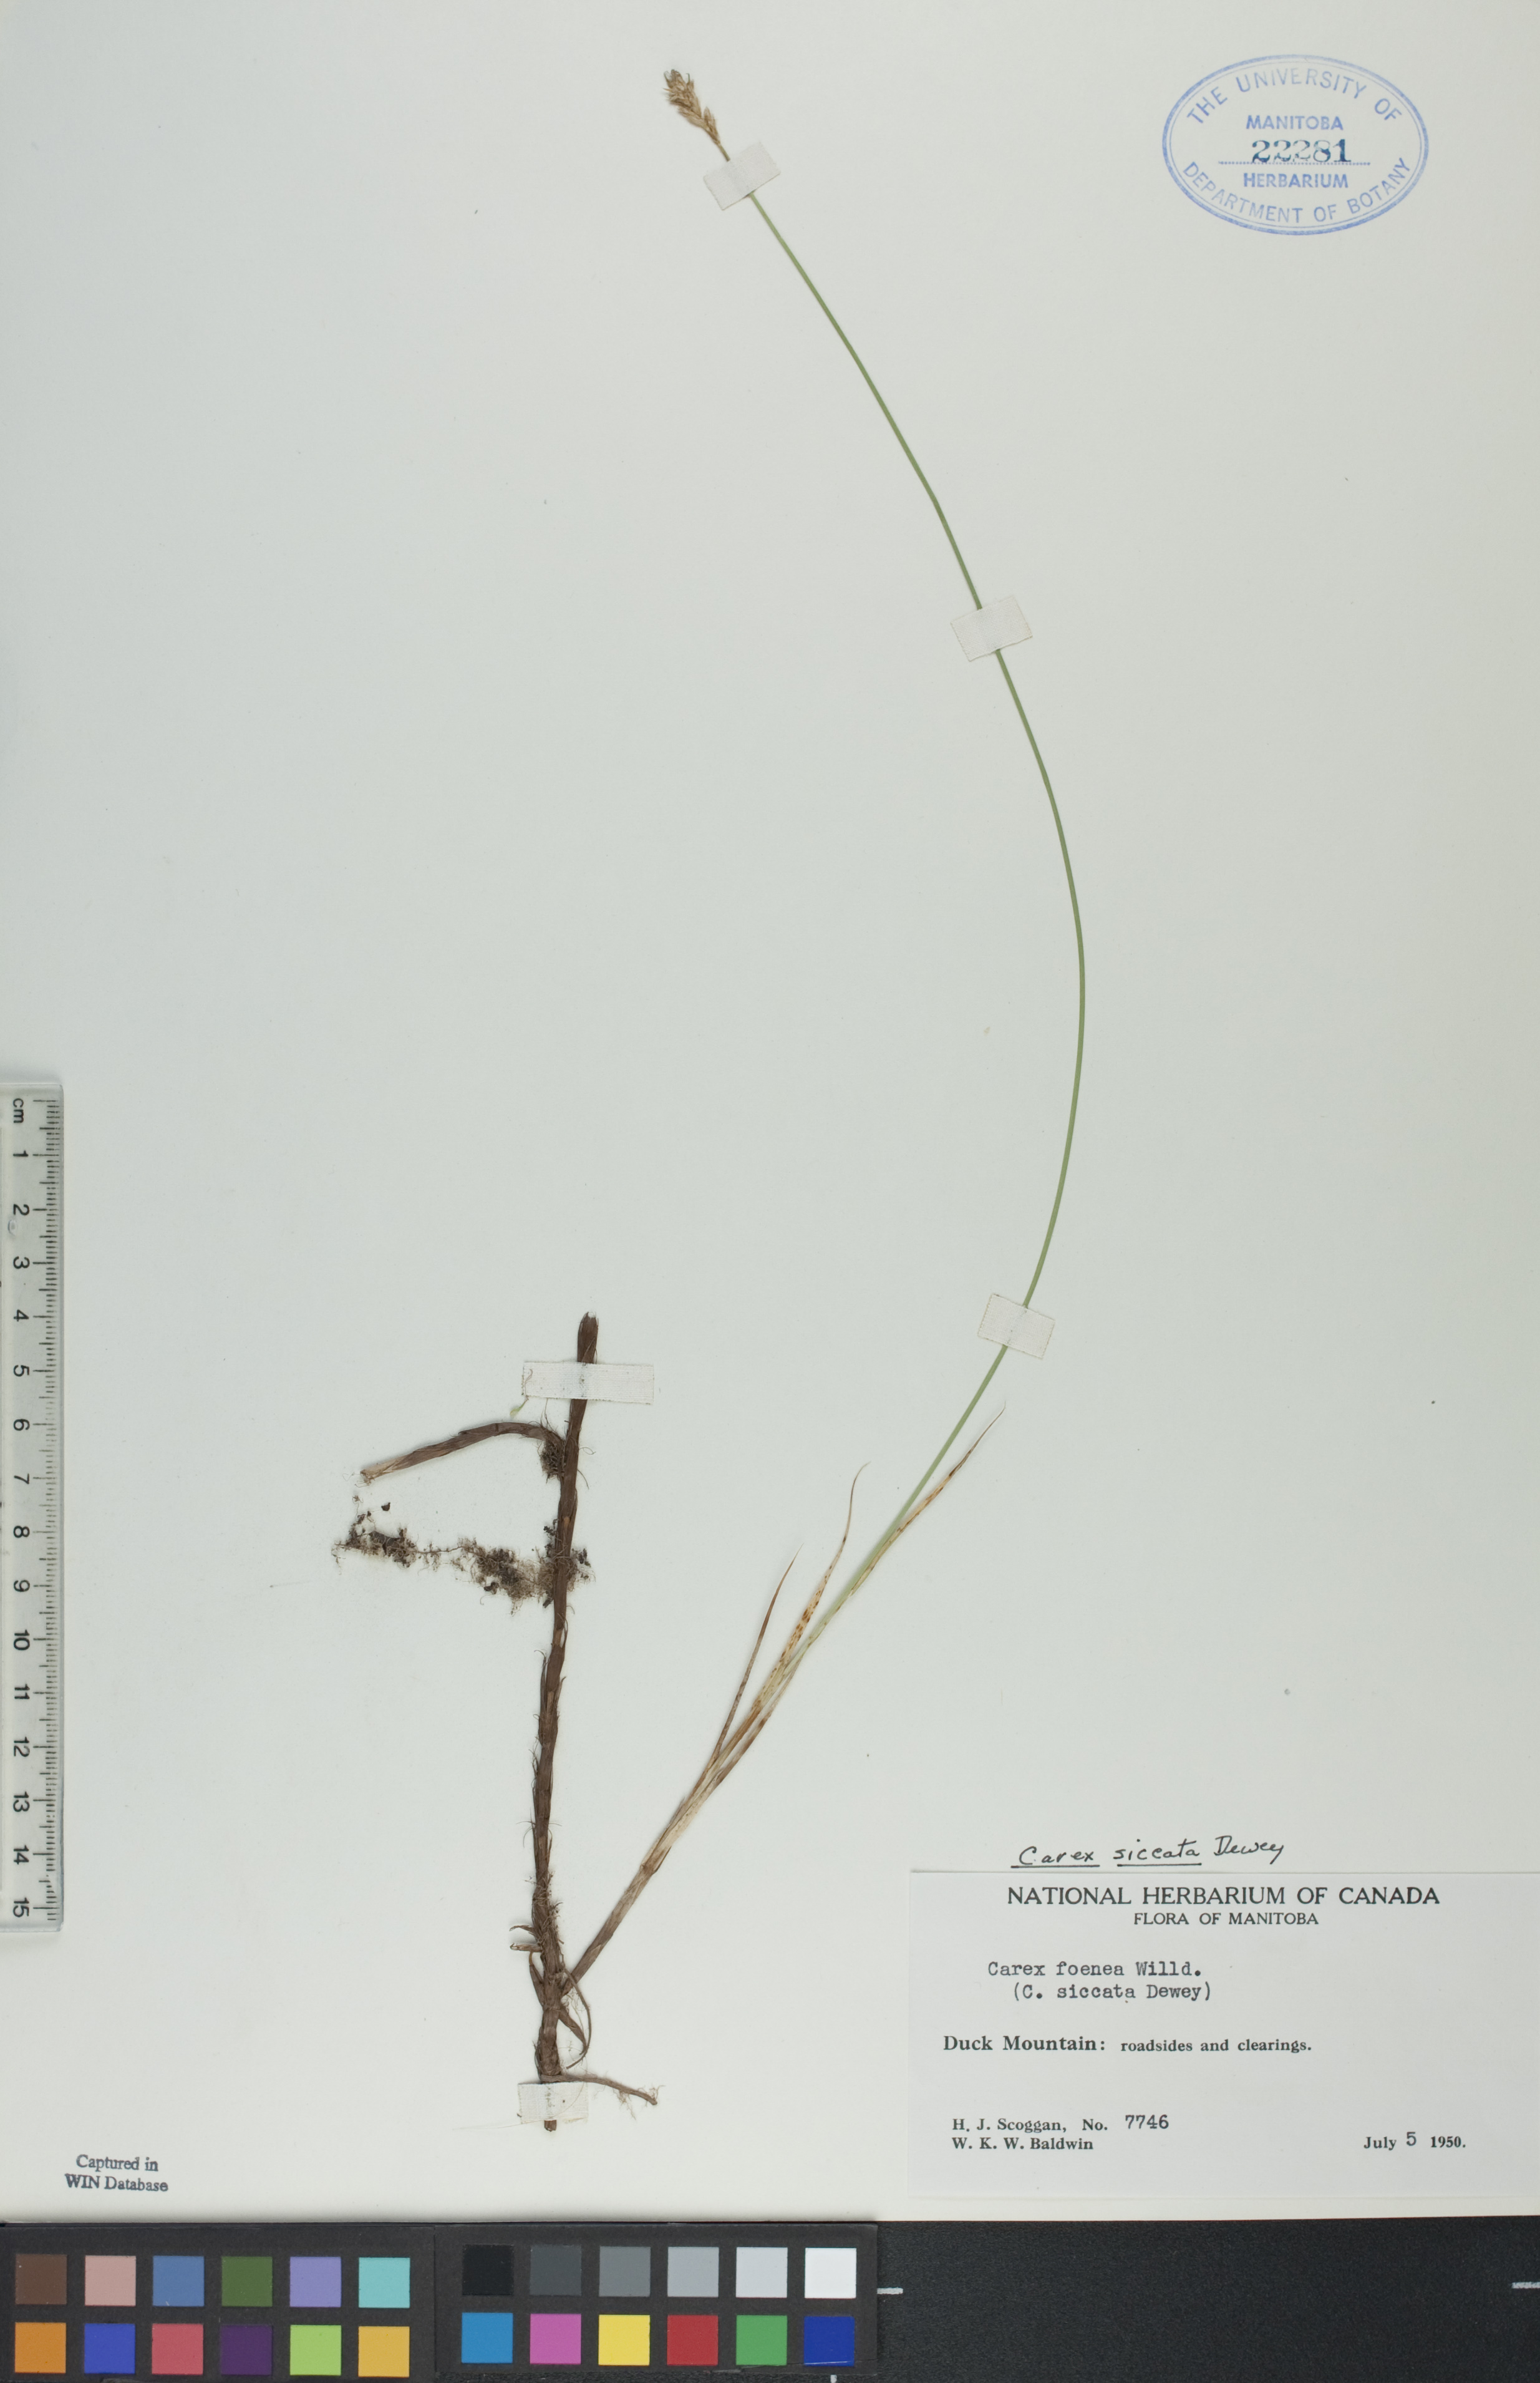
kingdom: Plantae
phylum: Tracheophyta
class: Liliopsida
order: Poales
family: Cyperaceae
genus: Carex
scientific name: Carex siccata
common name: Dry sedge
